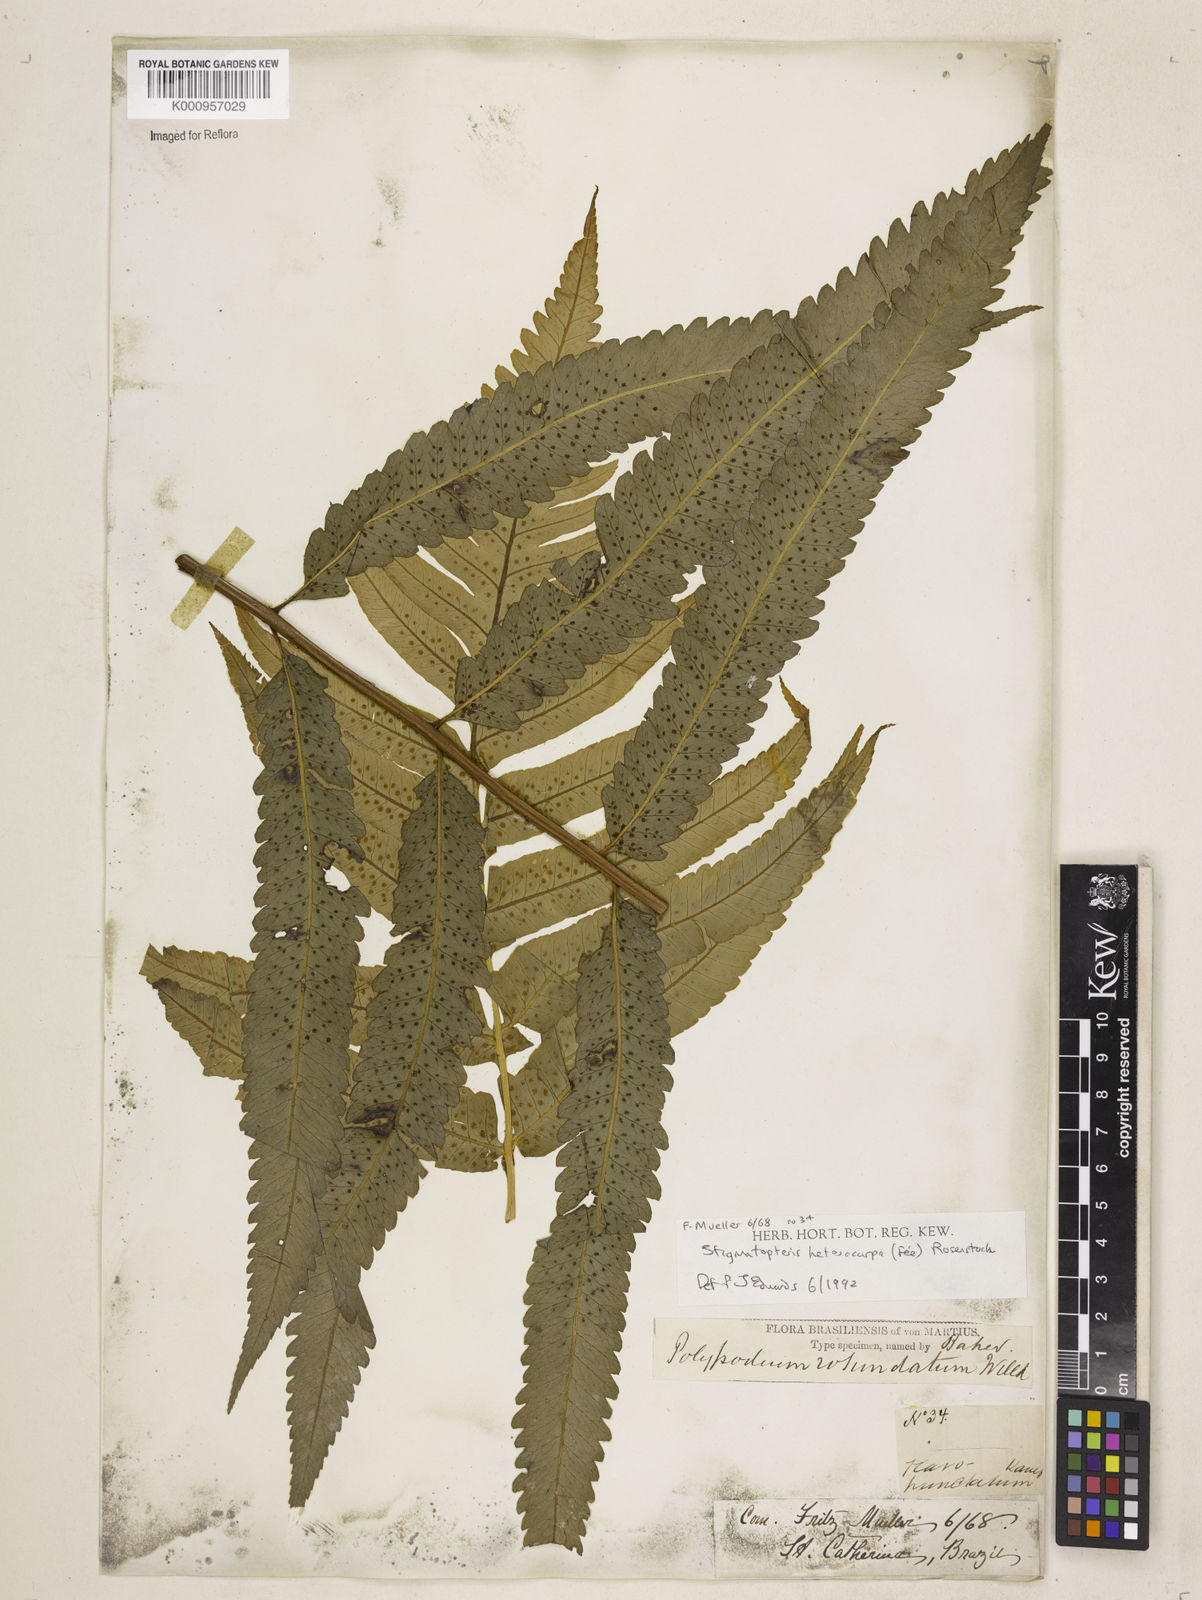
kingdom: Plantae
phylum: Tracheophyta
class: Polypodiopsida
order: Polypodiales
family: Dryopteridaceae
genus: Stigmatopteris
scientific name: Stigmatopteris
